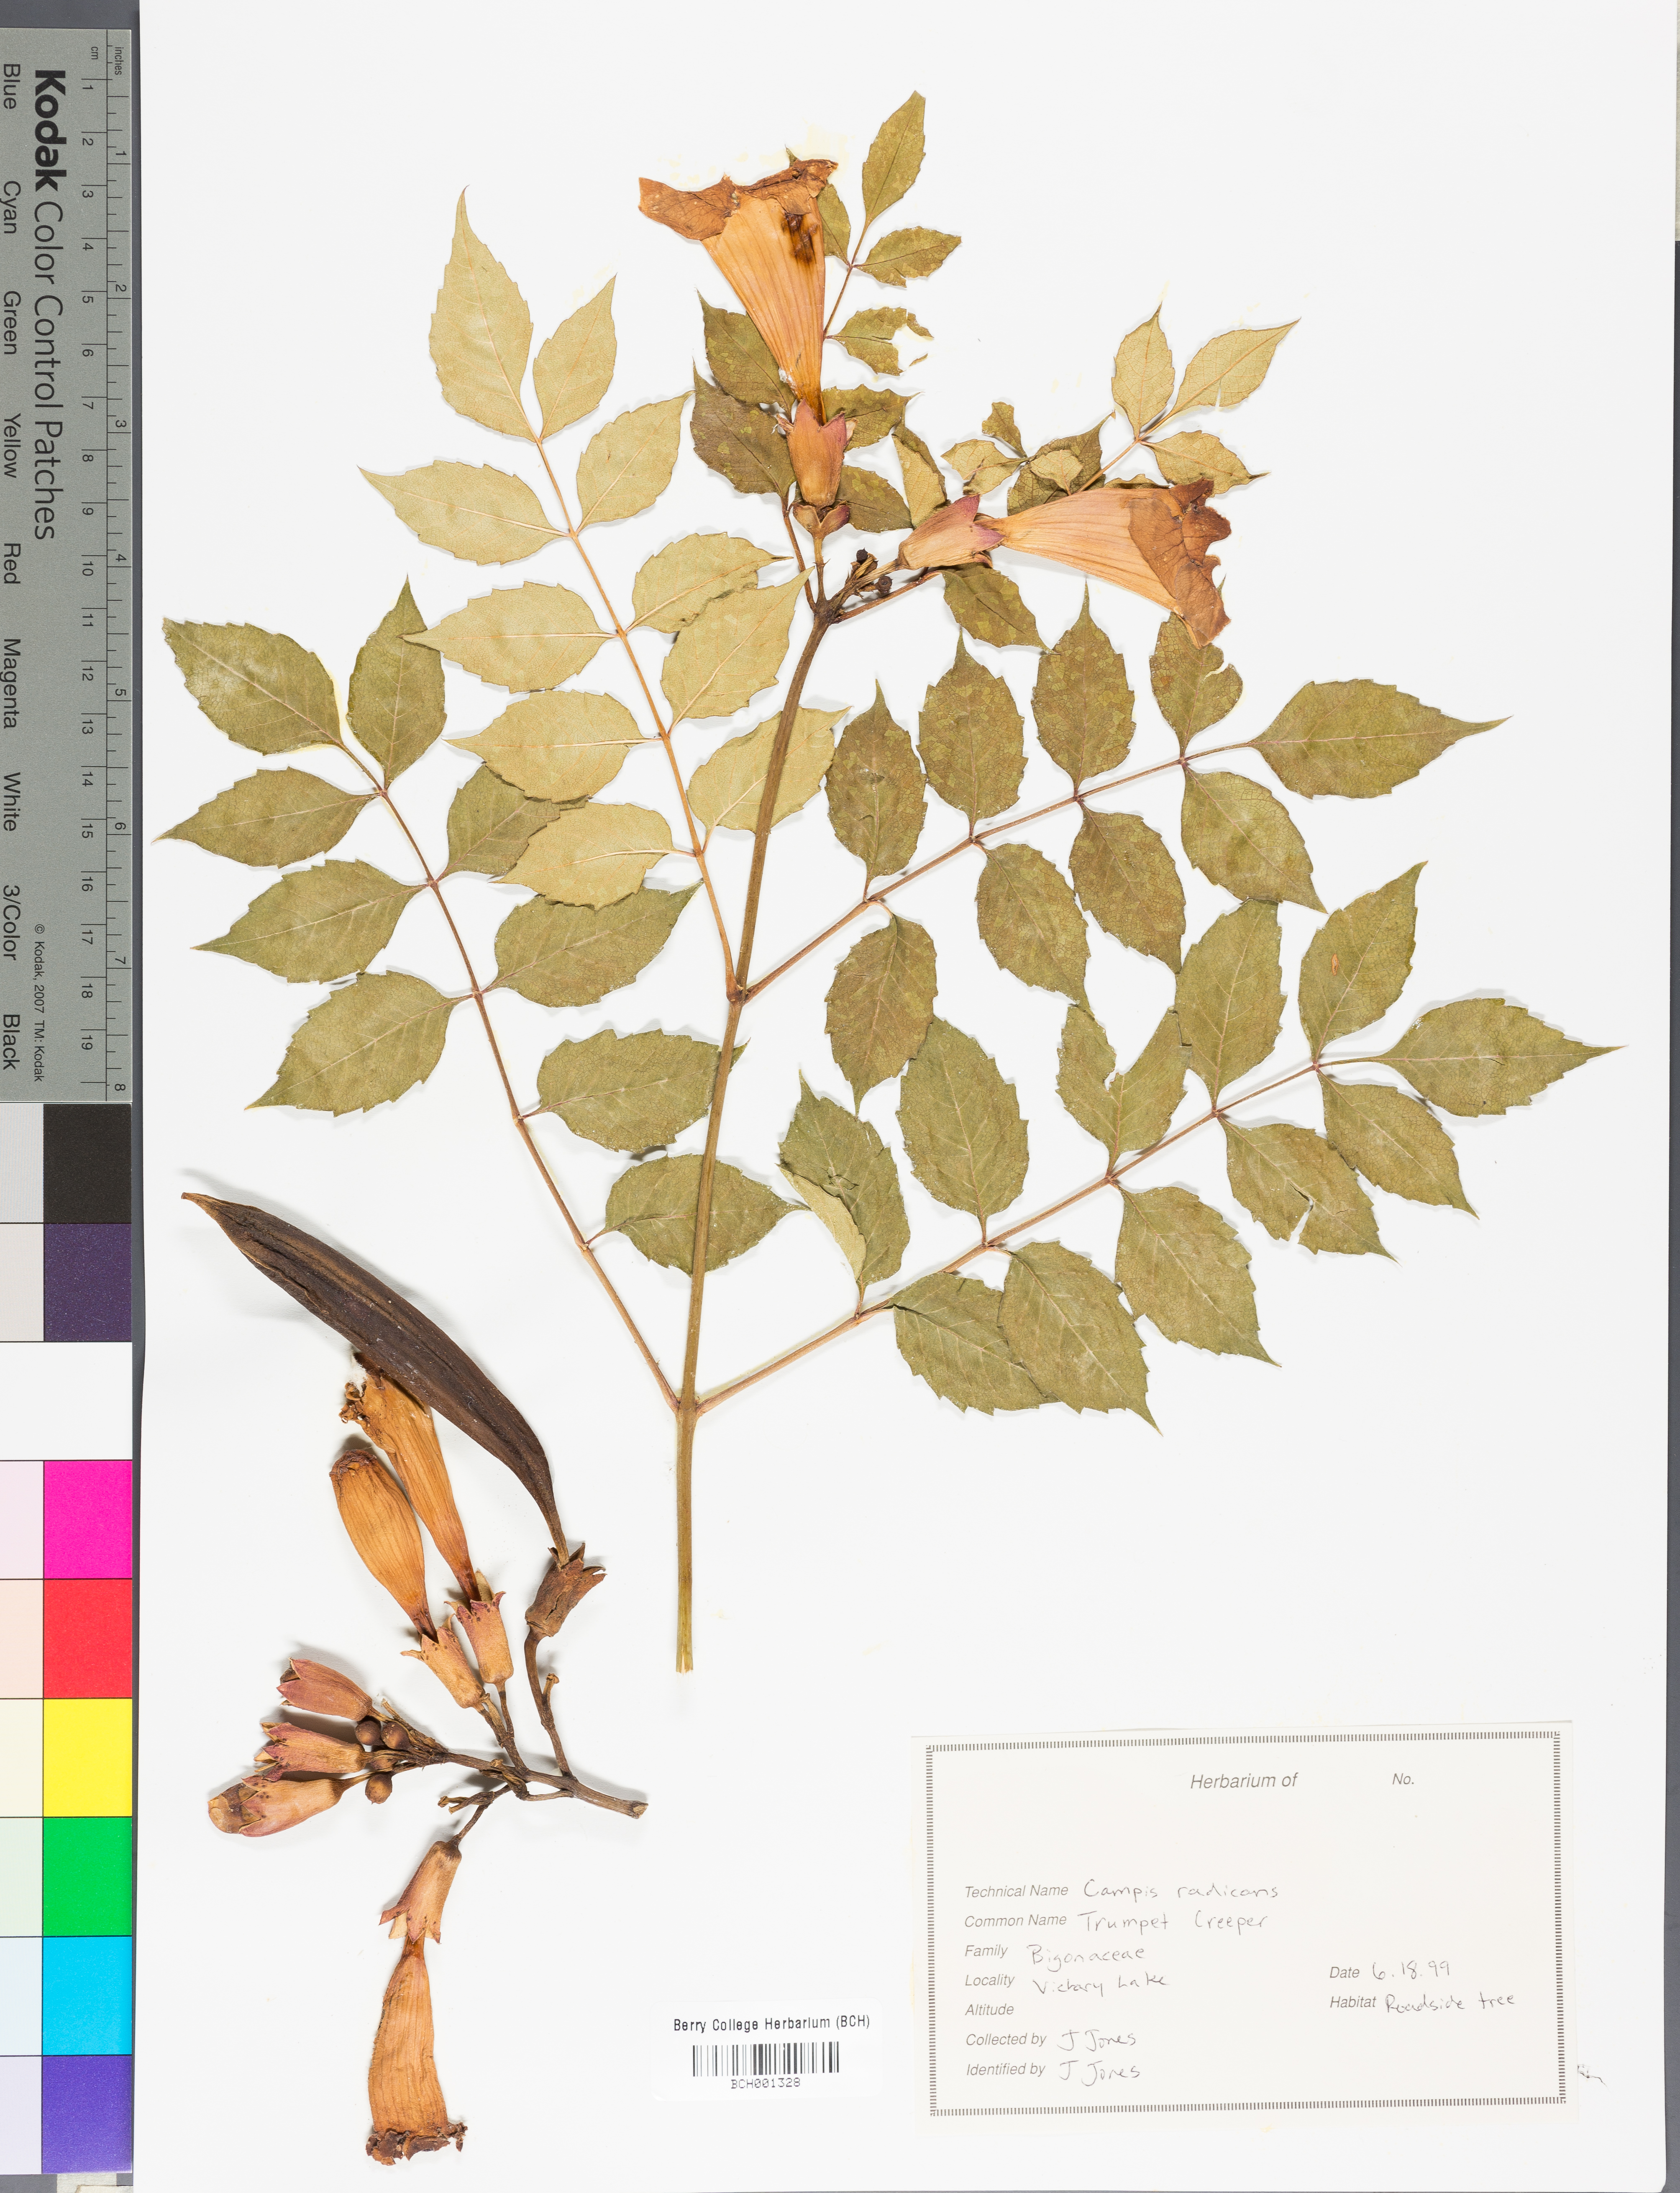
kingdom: Plantae
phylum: Tracheophyta
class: Magnoliopsida
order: Lamiales
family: Bignoniaceae
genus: Campsis
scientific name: Campsis radicans
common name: Trumpet-creeper
